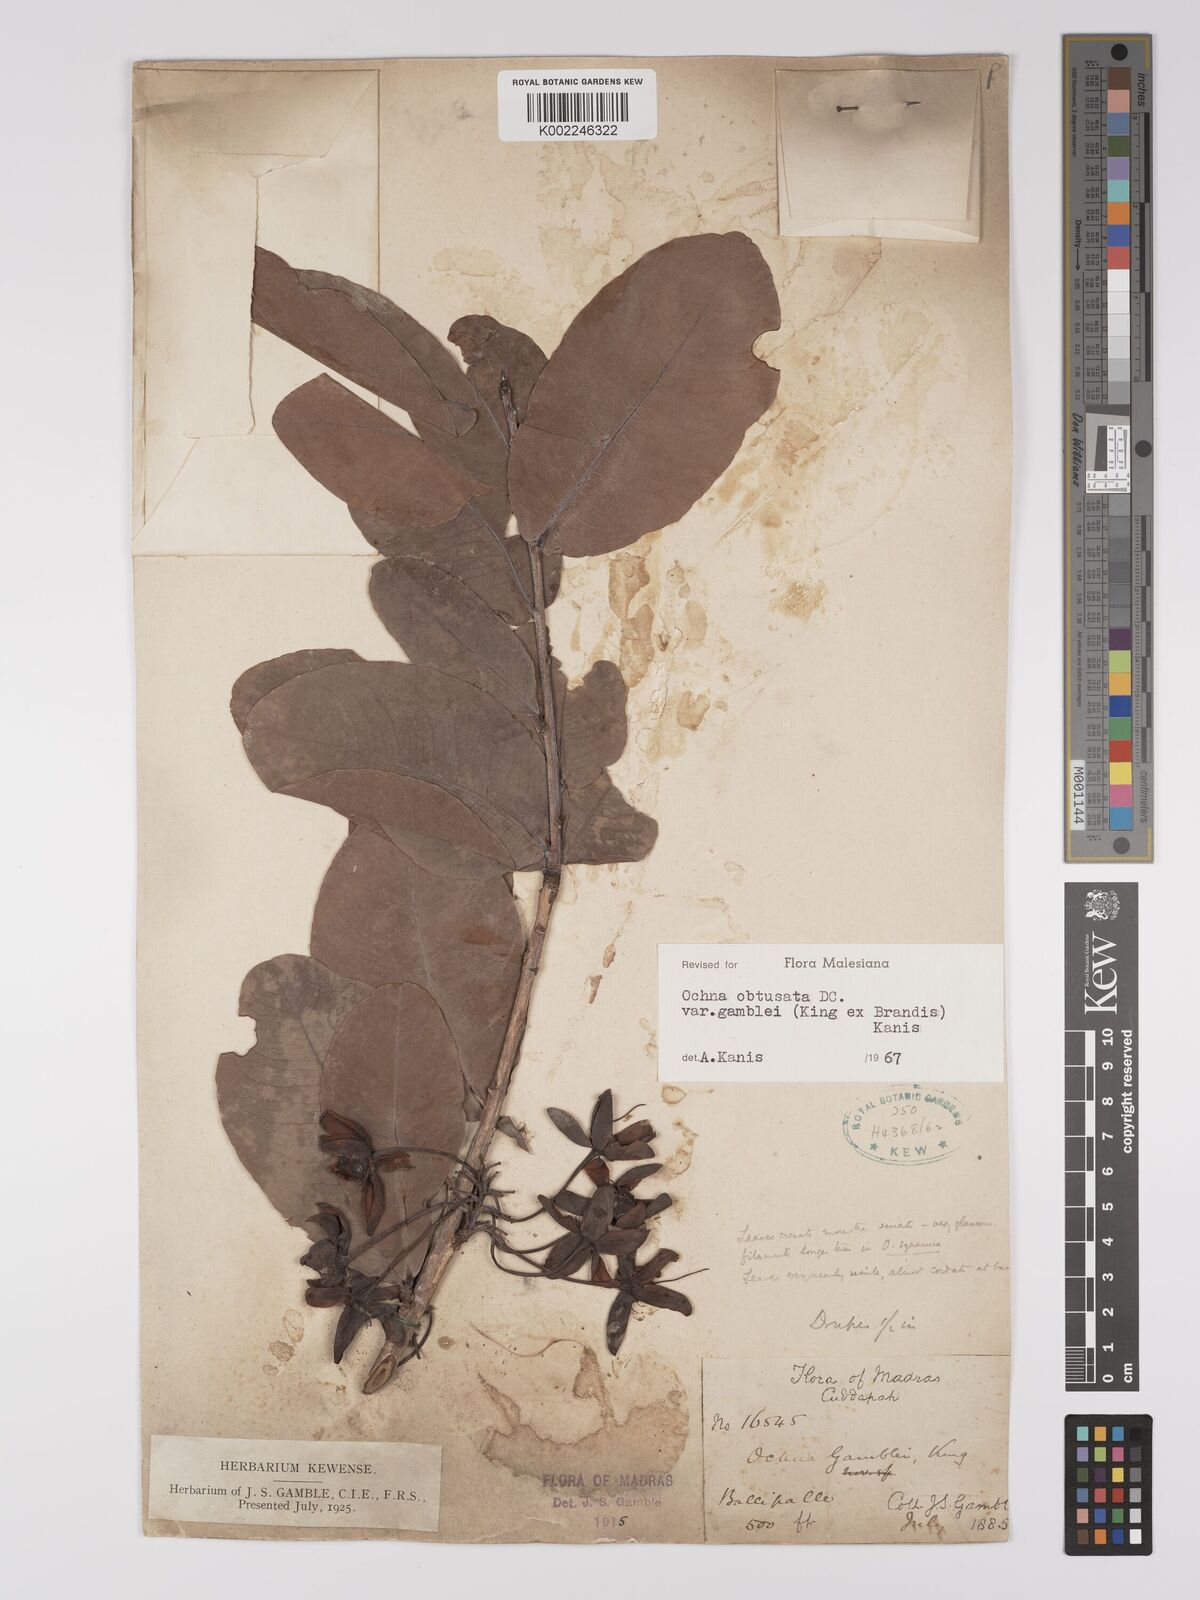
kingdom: Plantae
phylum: Tracheophyta
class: Magnoliopsida
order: Malpighiales
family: Ochnaceae
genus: Ochna
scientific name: Ochna obtusata
